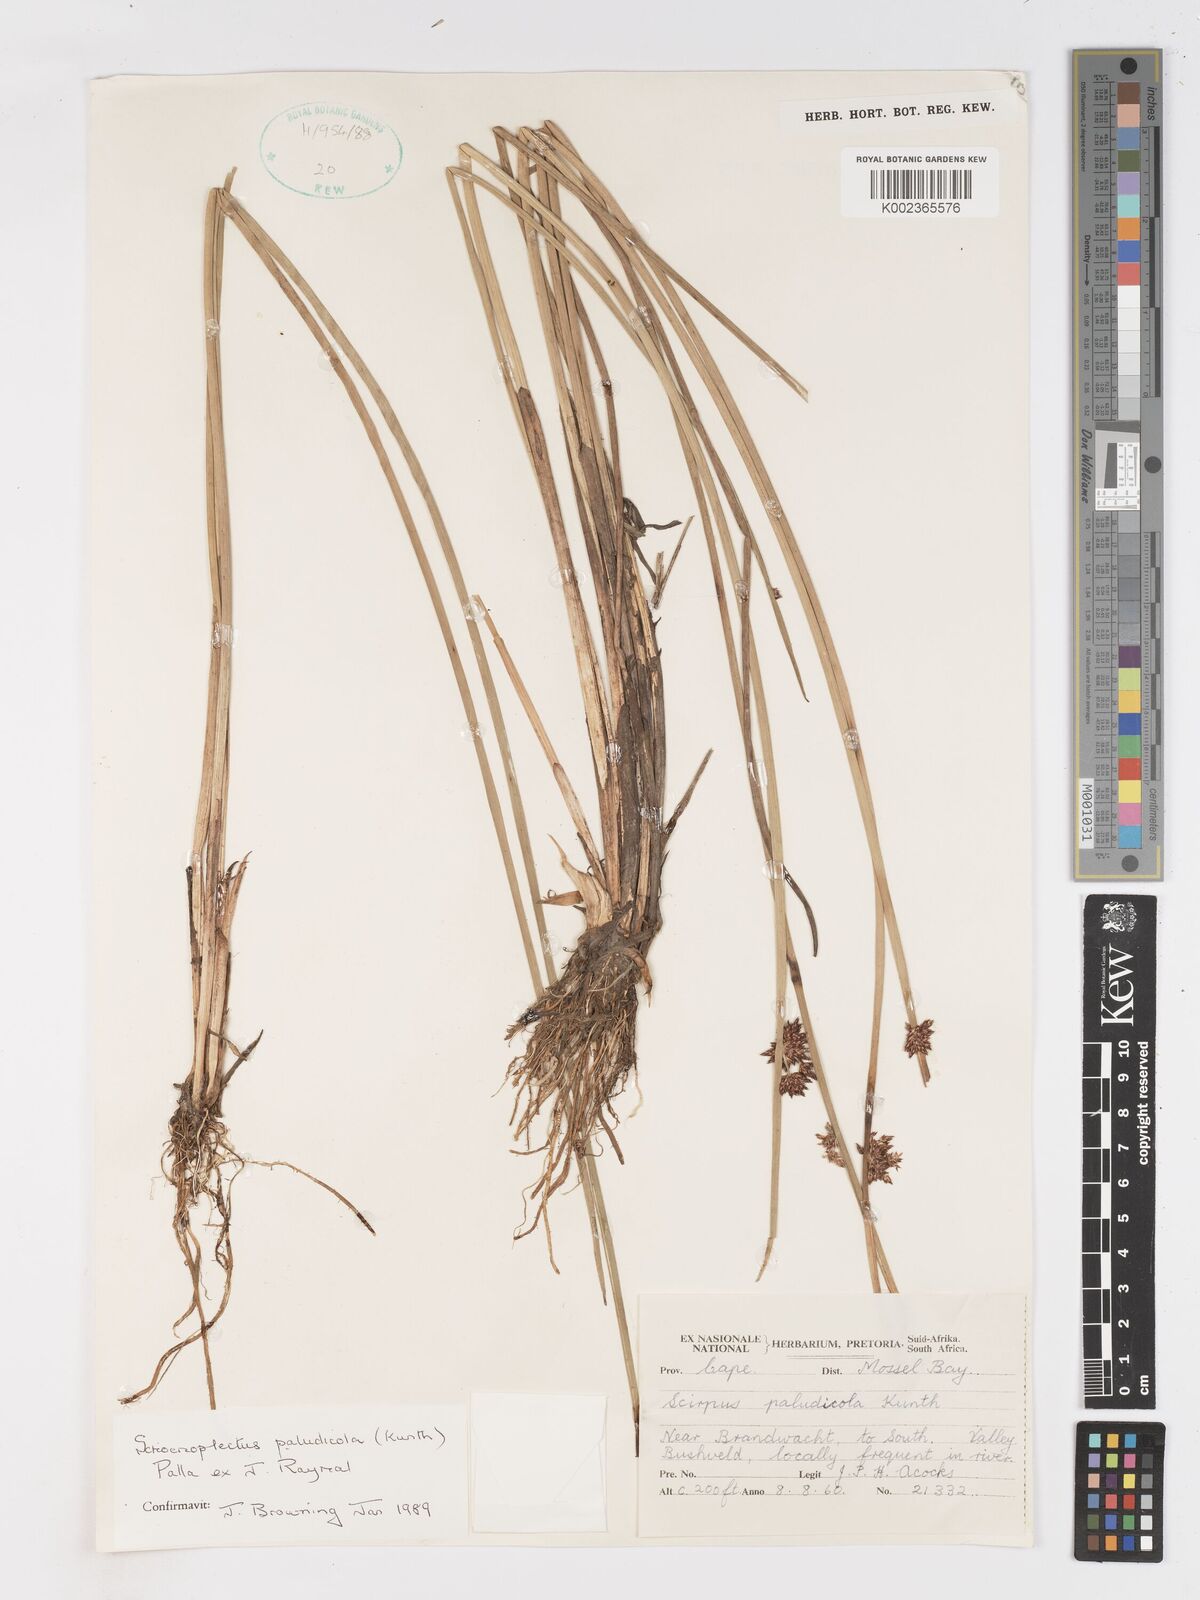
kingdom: Plantae
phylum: Tracheophyta
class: Liliopsida
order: Poales
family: Cyperaceae
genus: Schoenoplectiella
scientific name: Schoenoplectiella paludicola
